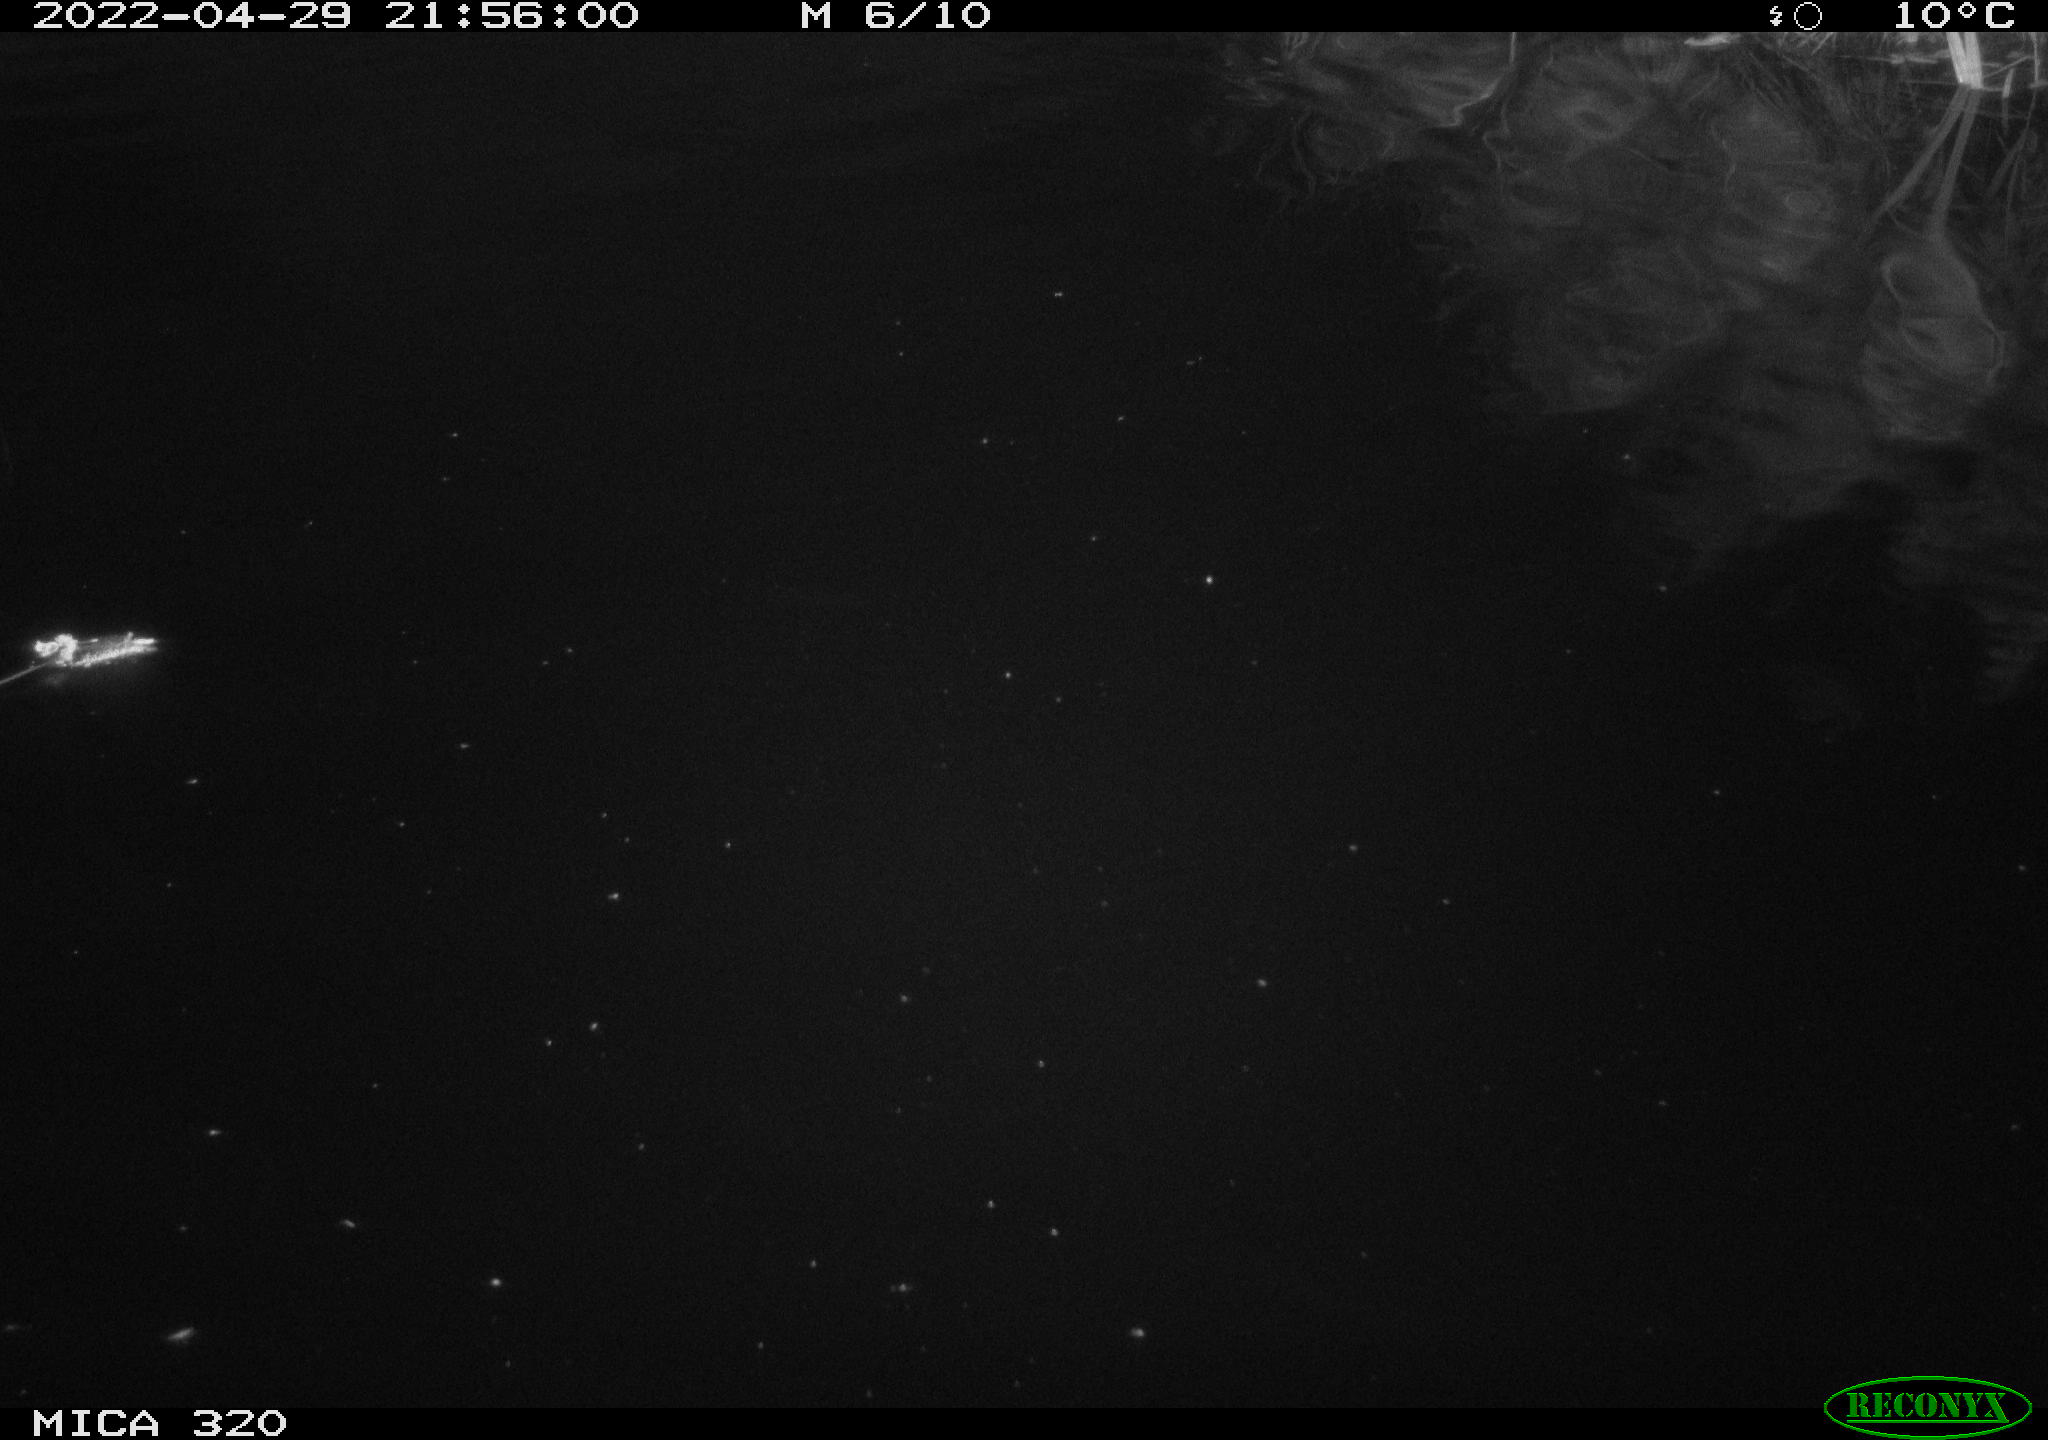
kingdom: Animalia
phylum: Chordata
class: Aves
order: Anseriformes
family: Anatidae
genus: Anas
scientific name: Anas platyrhynchos
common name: Mallard
